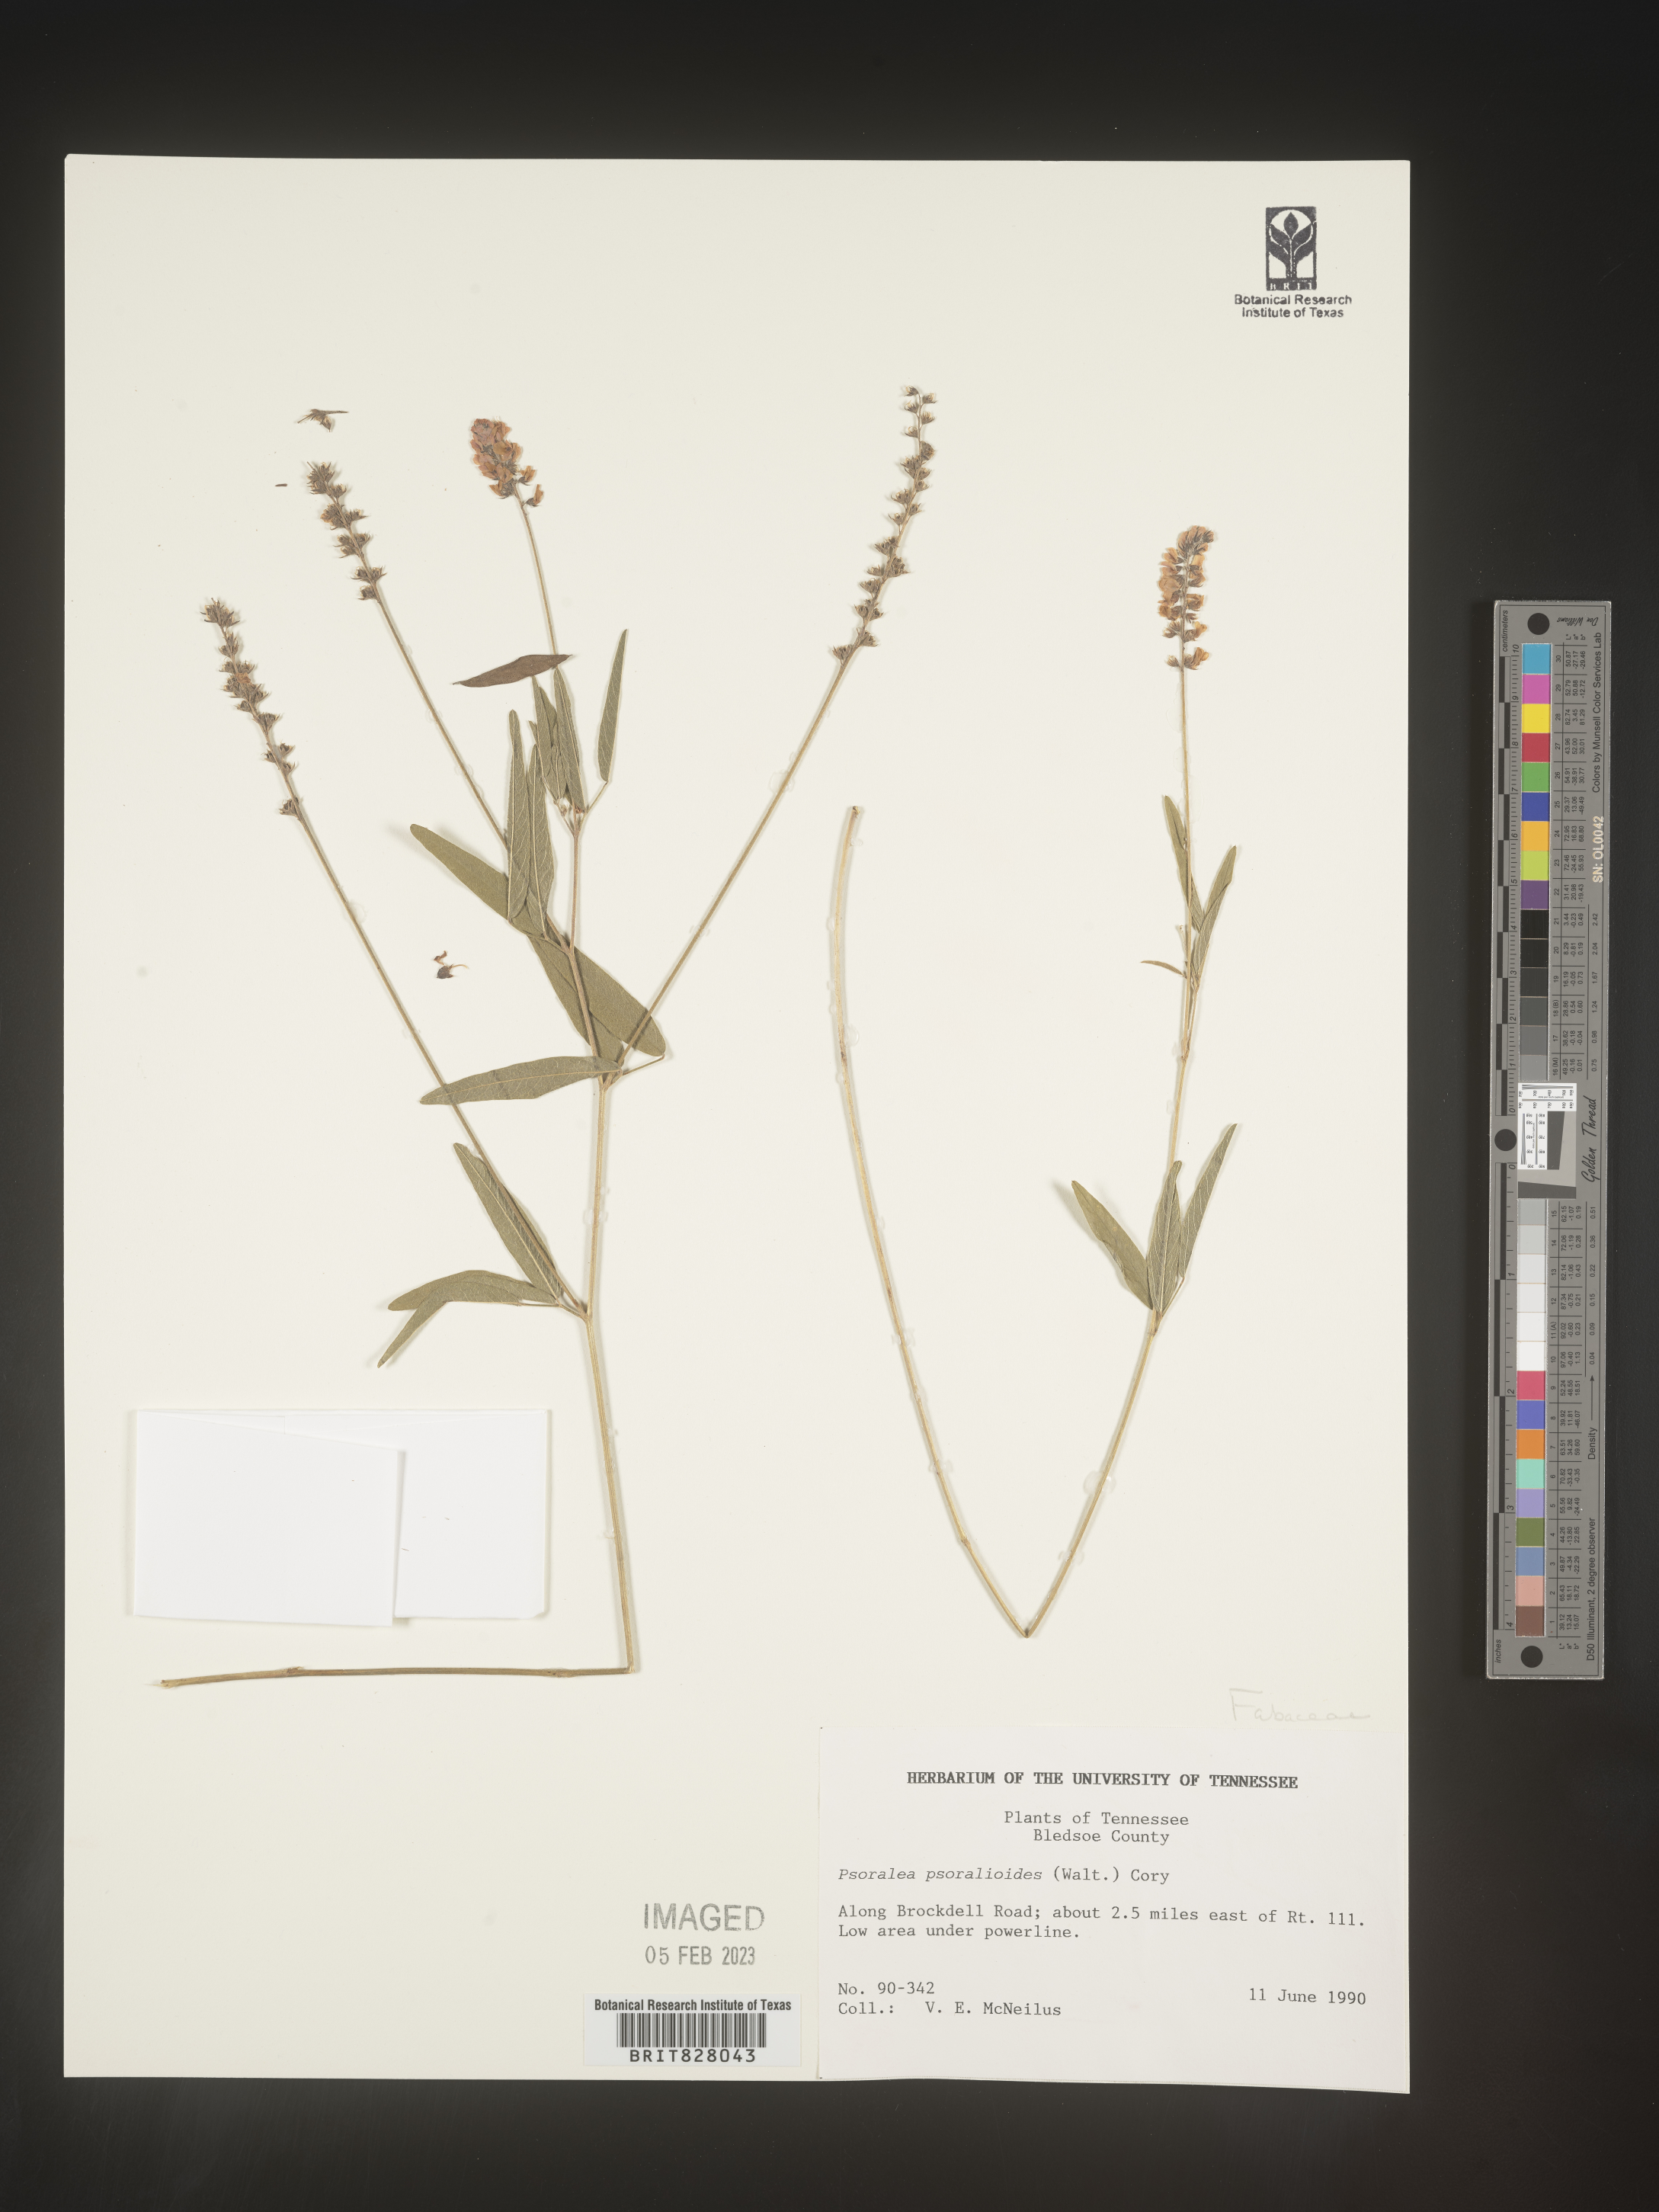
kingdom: Plantae
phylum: Tracheophyta
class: Magnoliopsida
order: Fabales
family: Fabaceae
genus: Orbexilum
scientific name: Orbexilum pedunculatum
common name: Sampson's snakeroot
